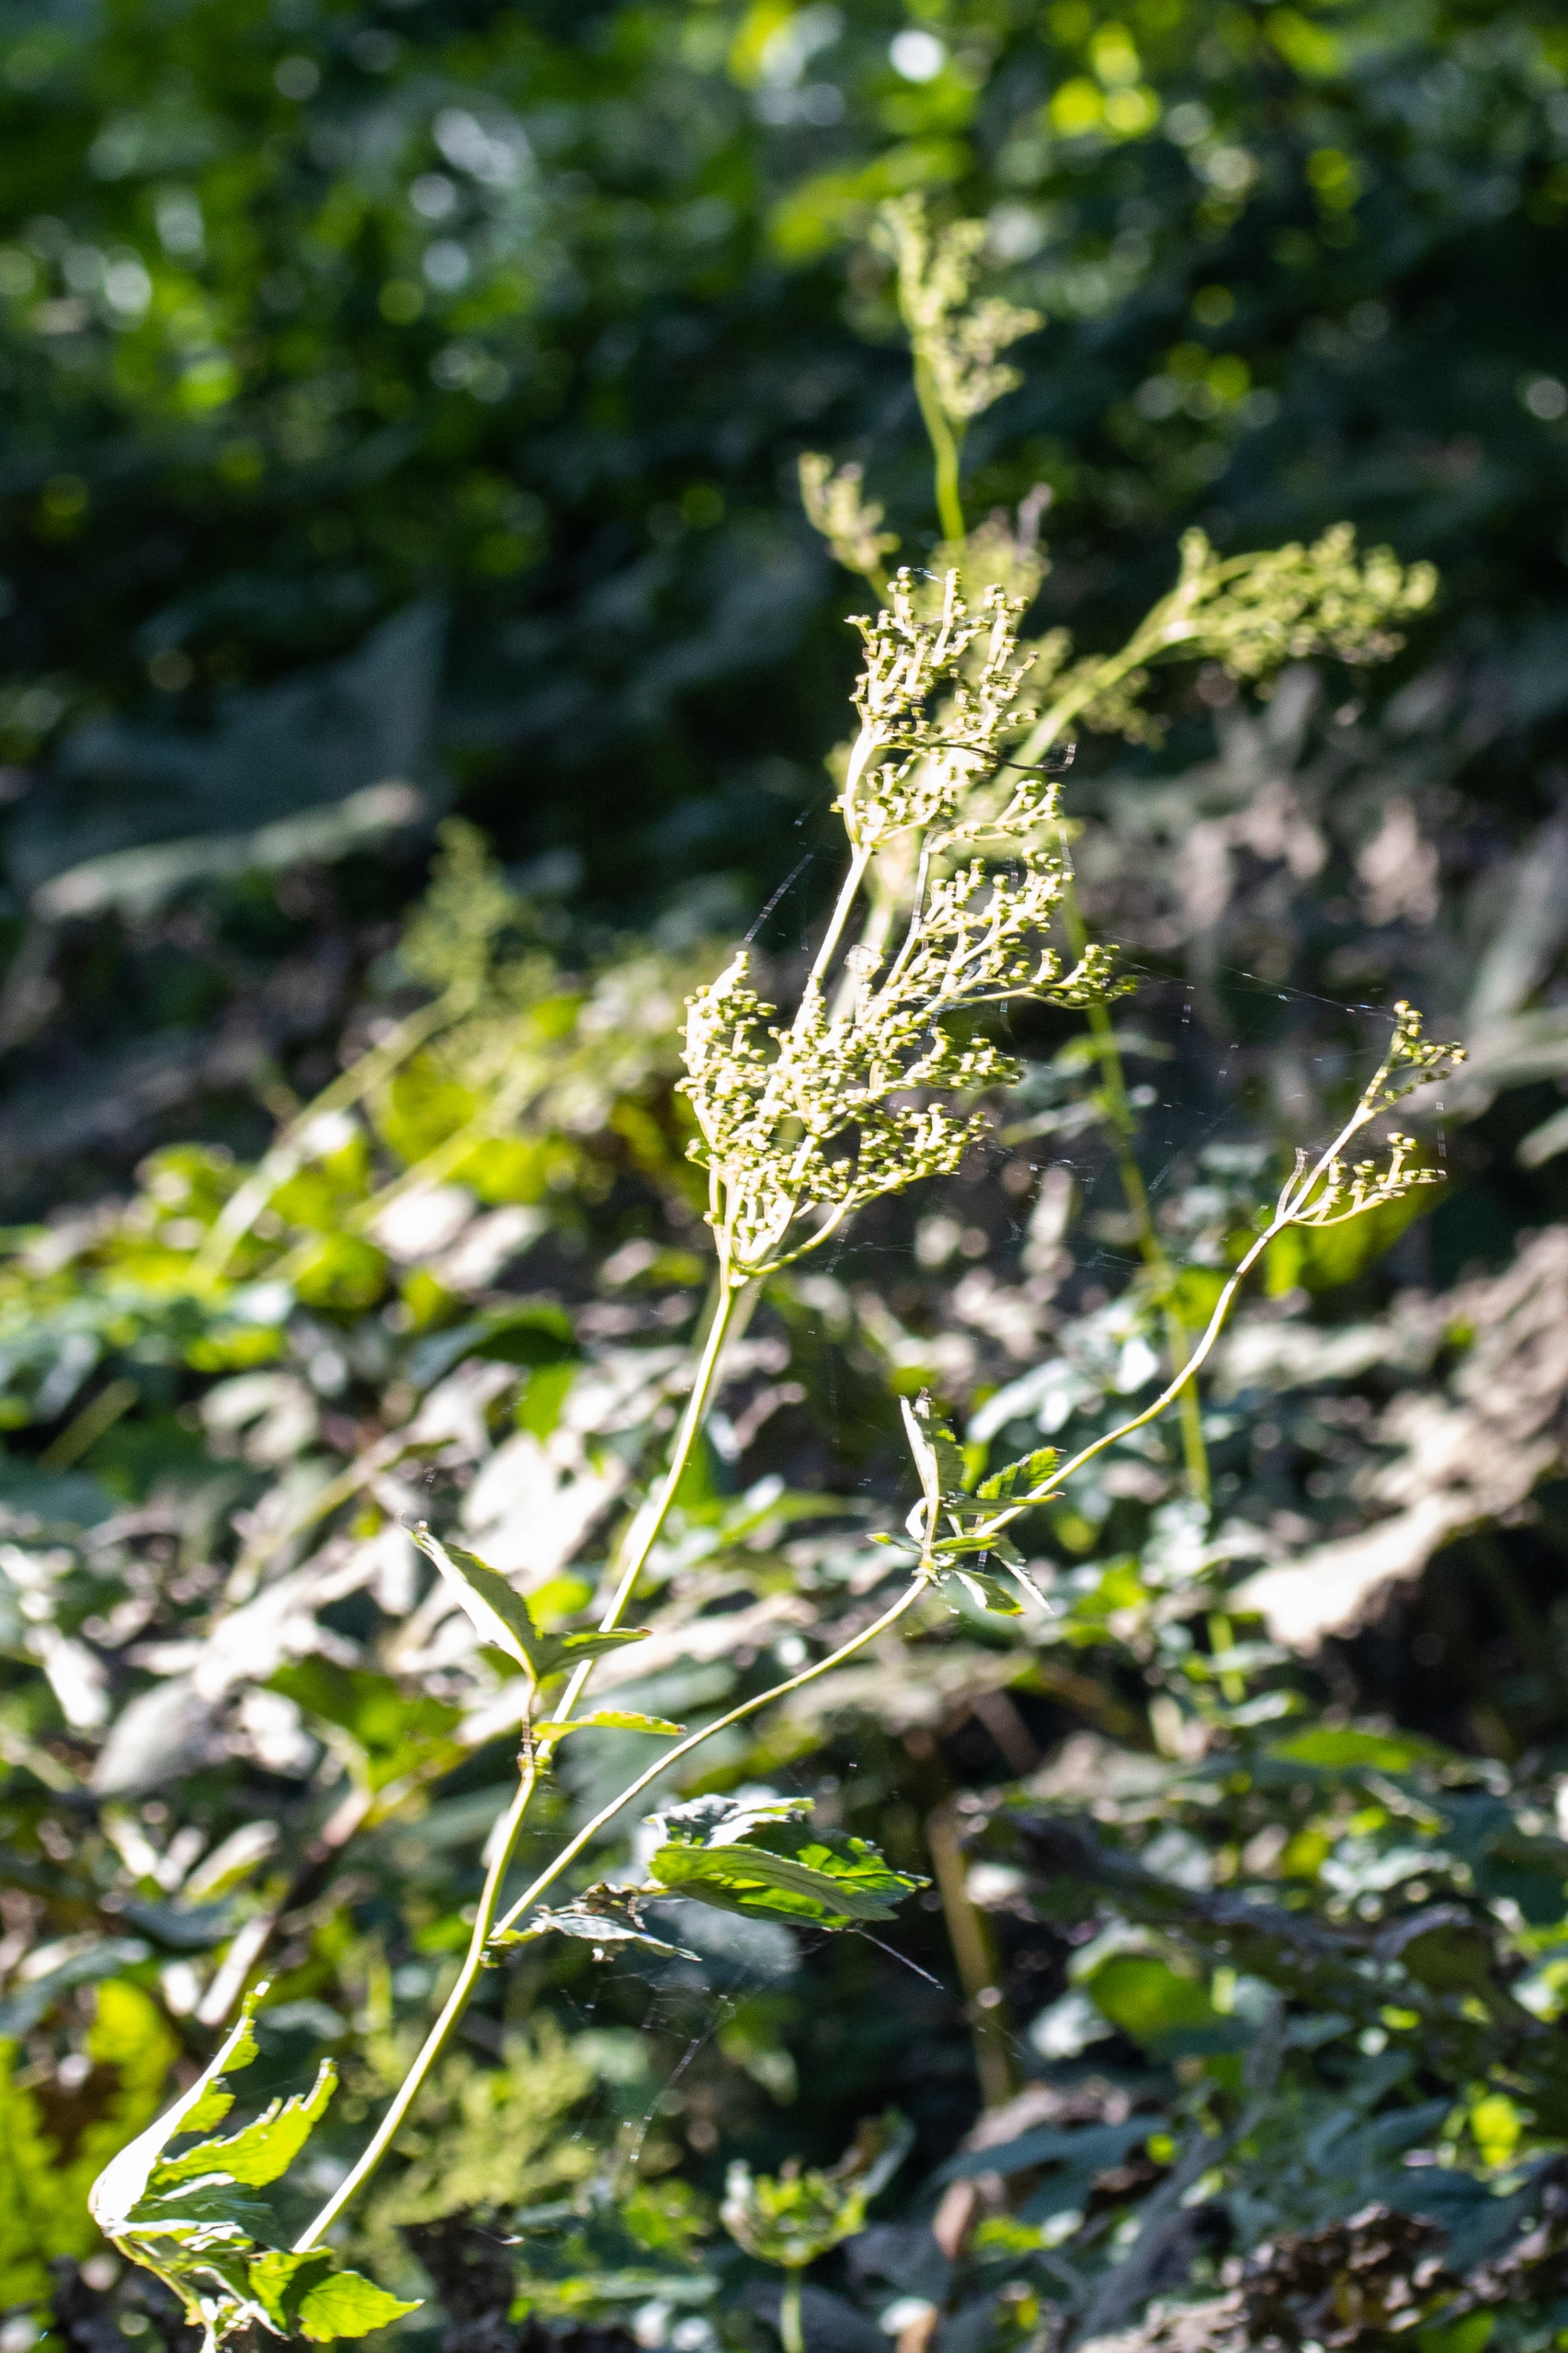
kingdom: Plantae
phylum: Tracheophyta
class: Magnoliopsida
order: Rosales
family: Rosaceae
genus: Filipendula
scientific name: Filipendula ulmaria
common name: Almindelig mjødurt
